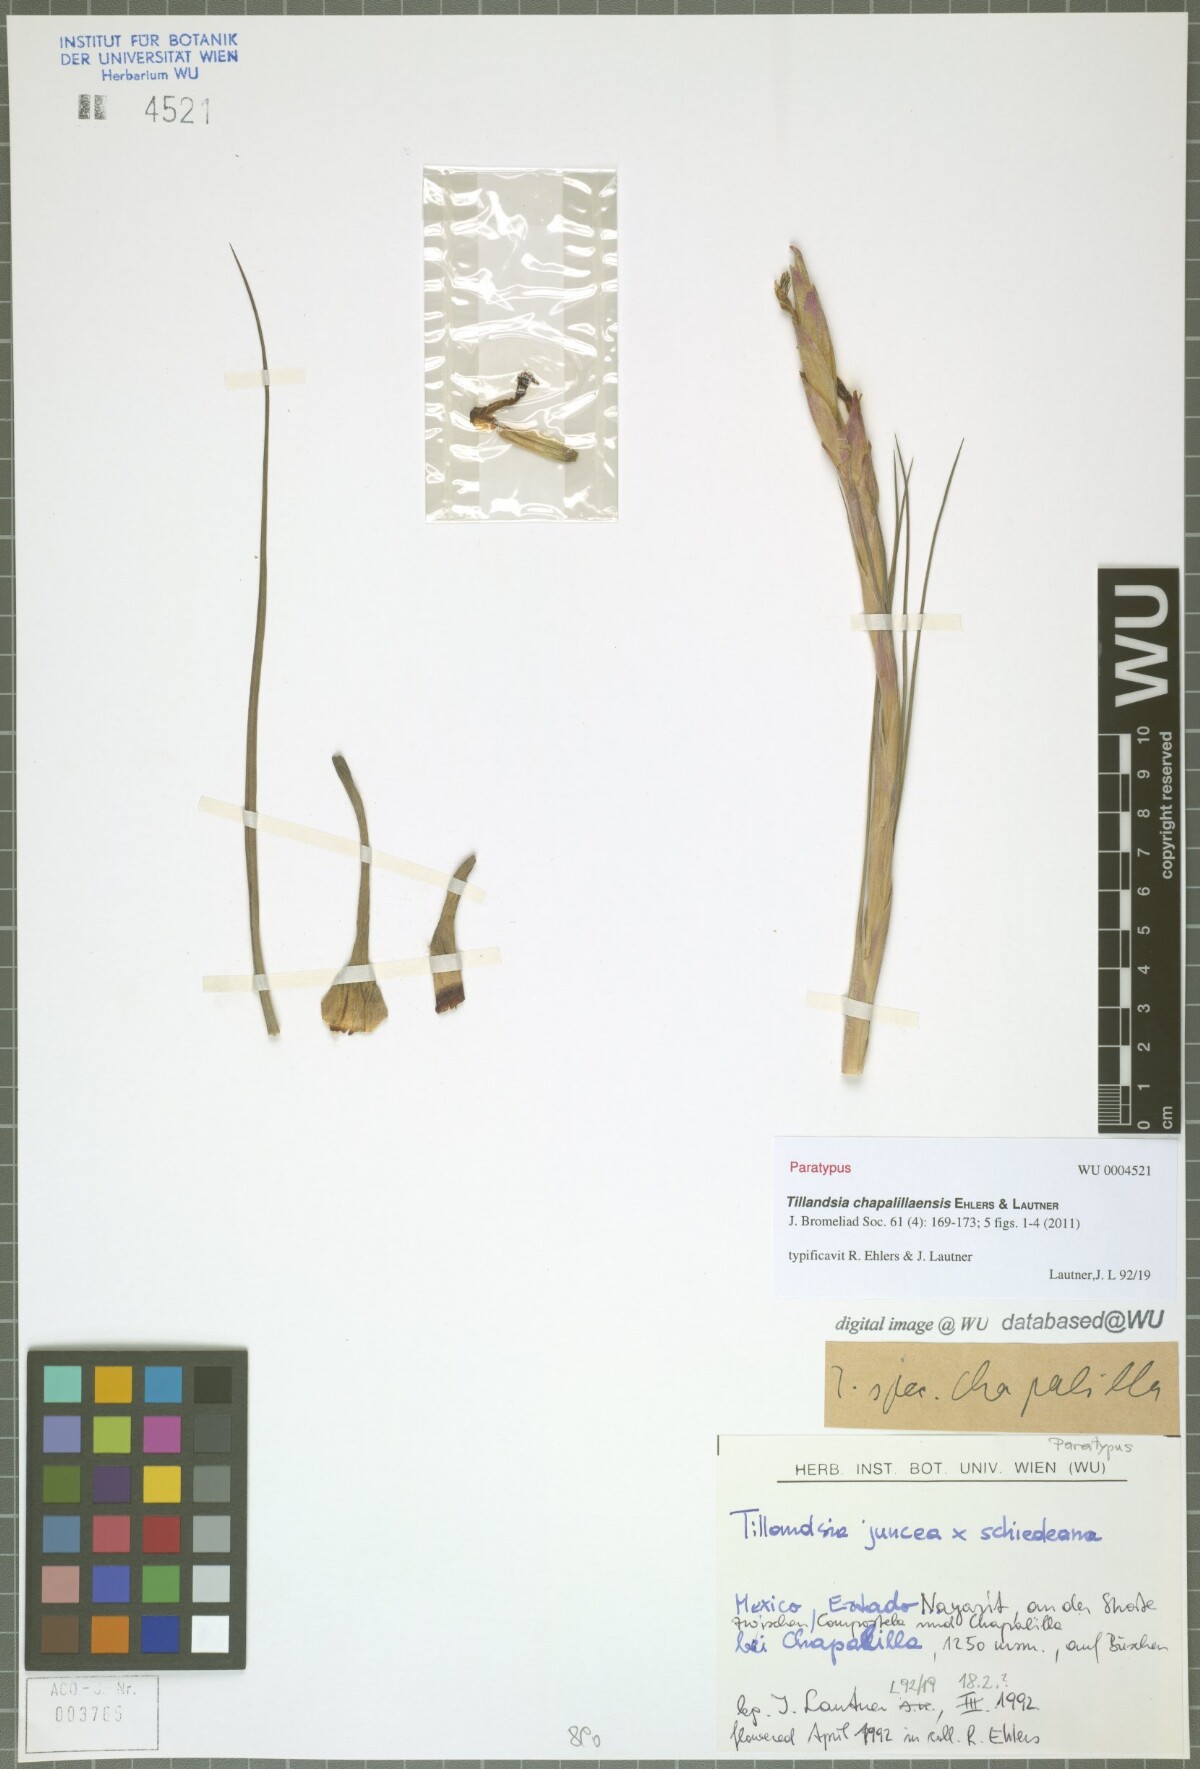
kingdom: Plantae
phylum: Tracheophyta
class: Liliopsida
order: Poales
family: Bromeliaceae
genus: Tillandsia
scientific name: Tillandsia chapalillaensis
